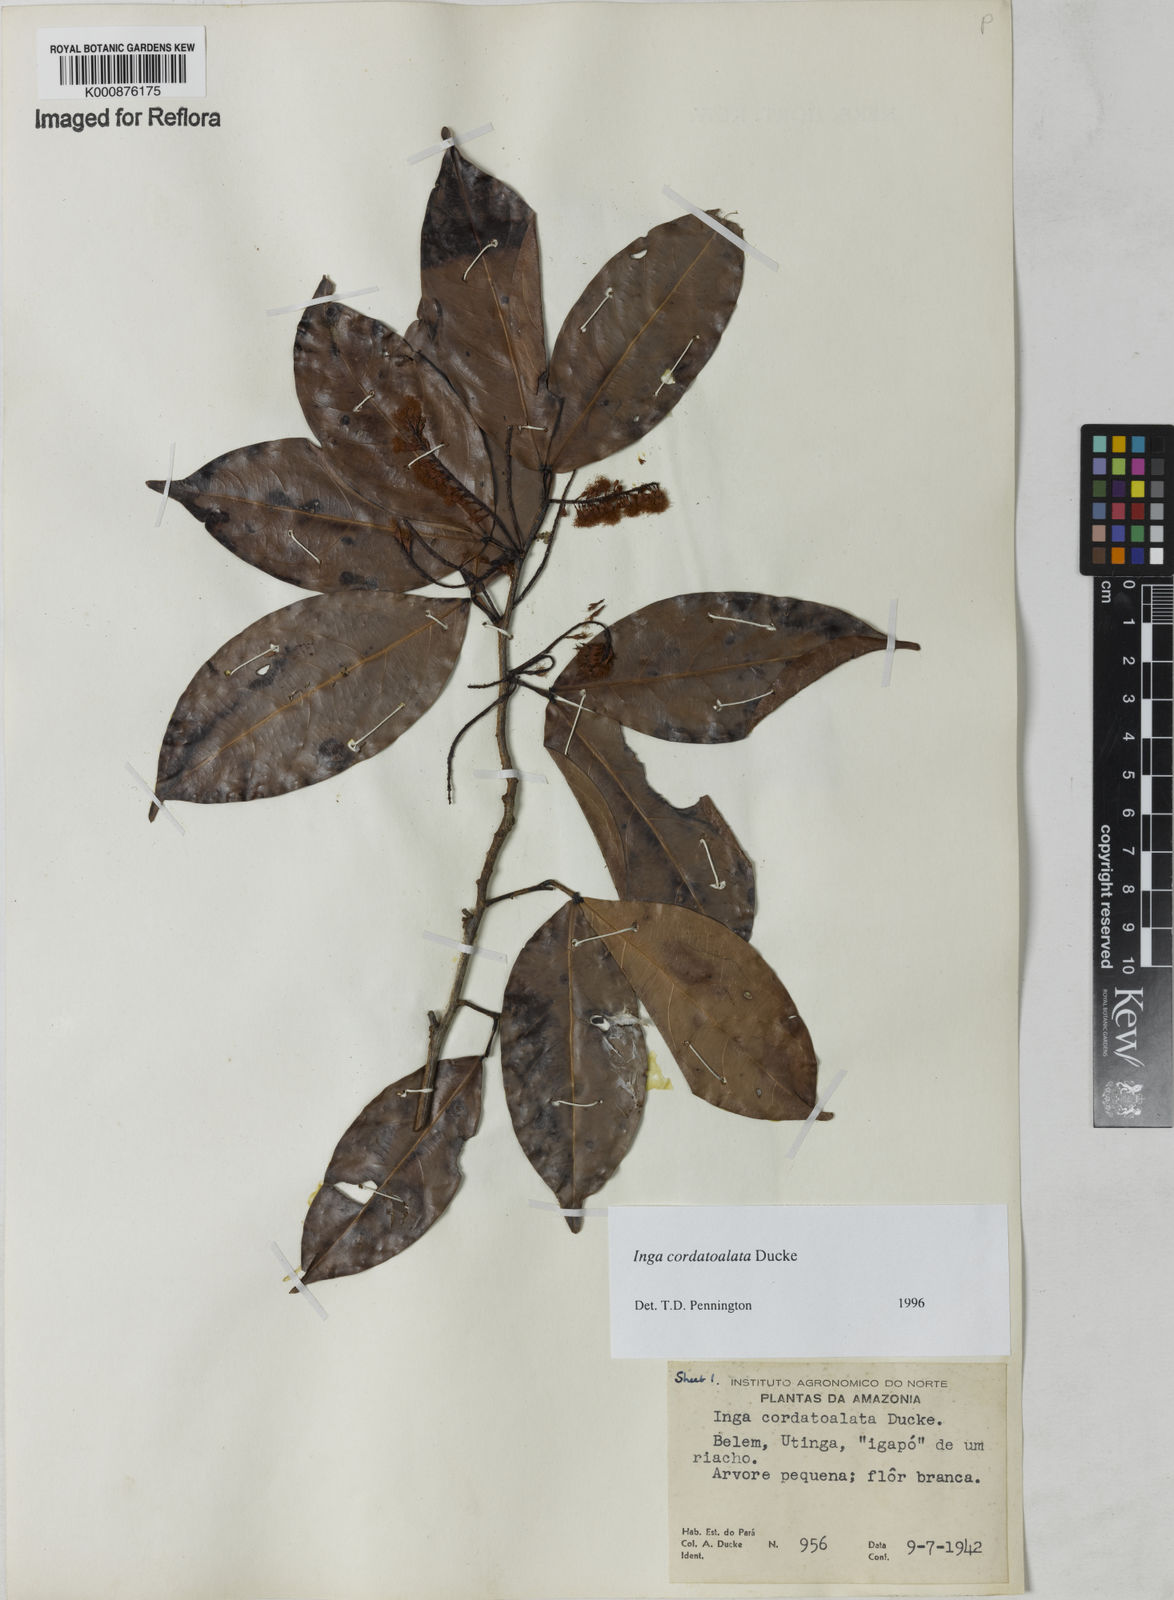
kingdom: Plantae
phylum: Tracheophyta
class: Magnoliopsida
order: Fabales
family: Fabaceae
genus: Inga
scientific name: Inga cordatoalata
